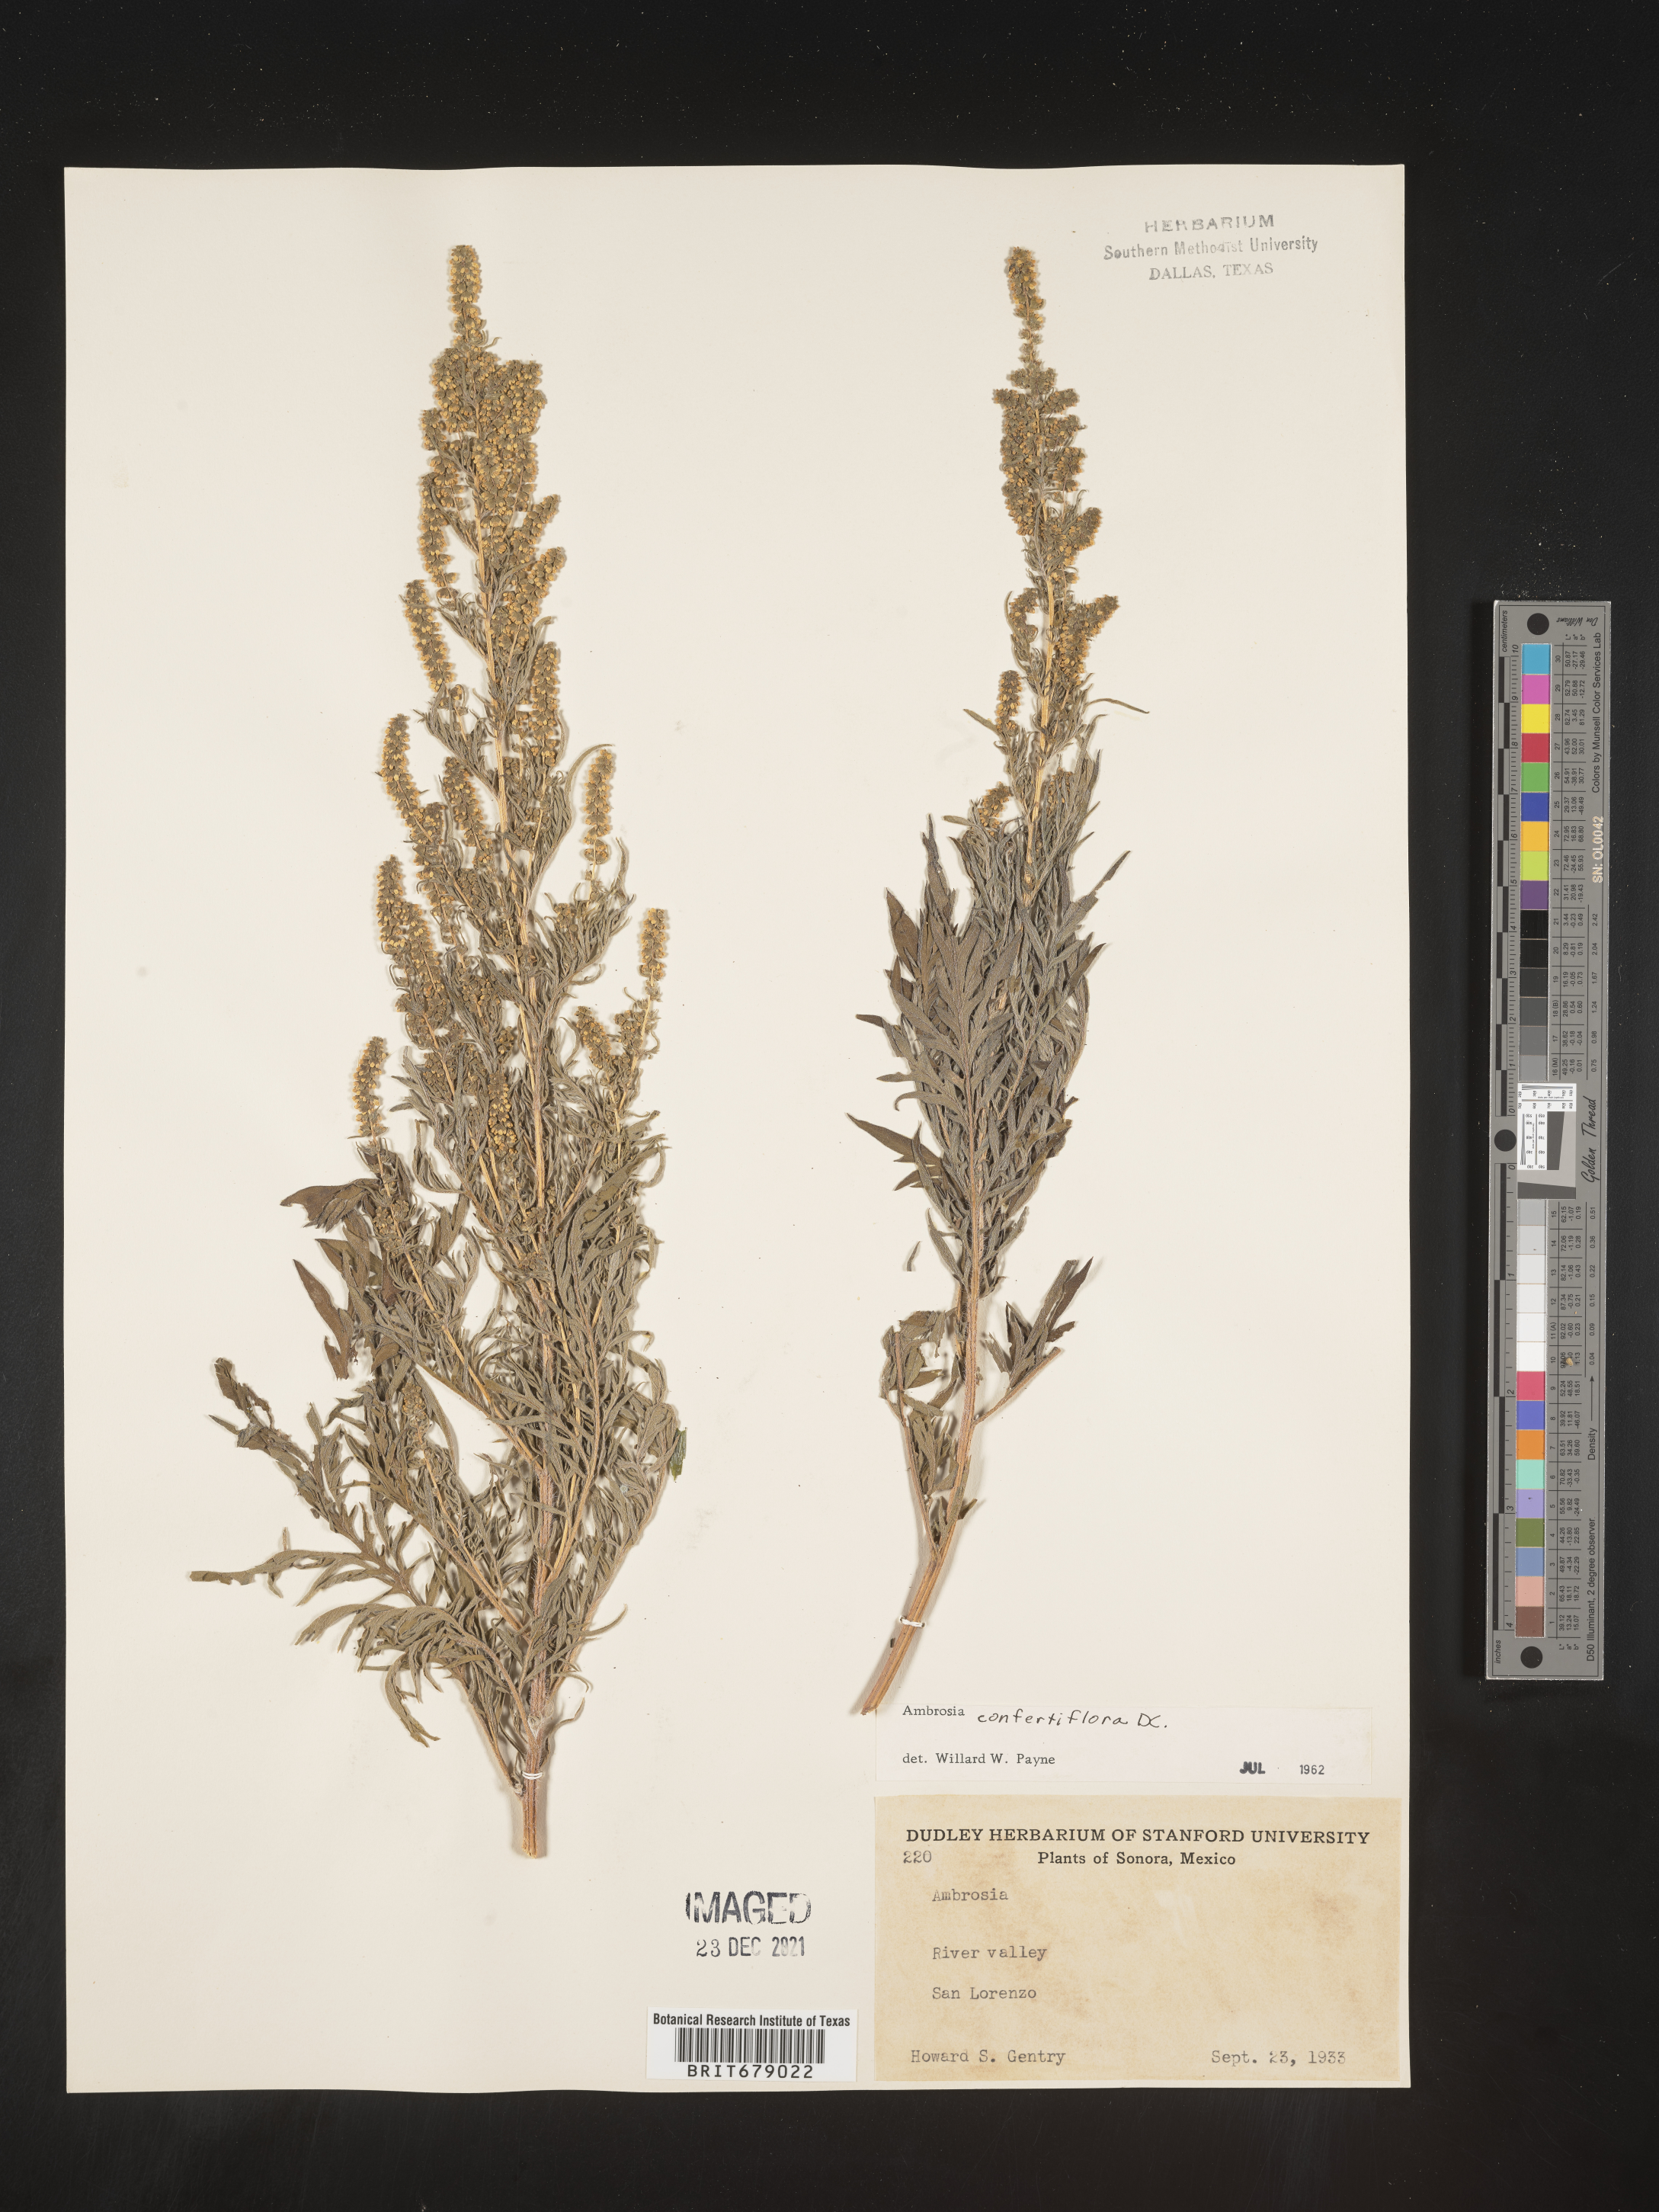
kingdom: Plantae
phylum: Tracheophyta
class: Magnoliopsida
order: Asterales
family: Asteraceae
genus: Ambrosia
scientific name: Ambrosia
